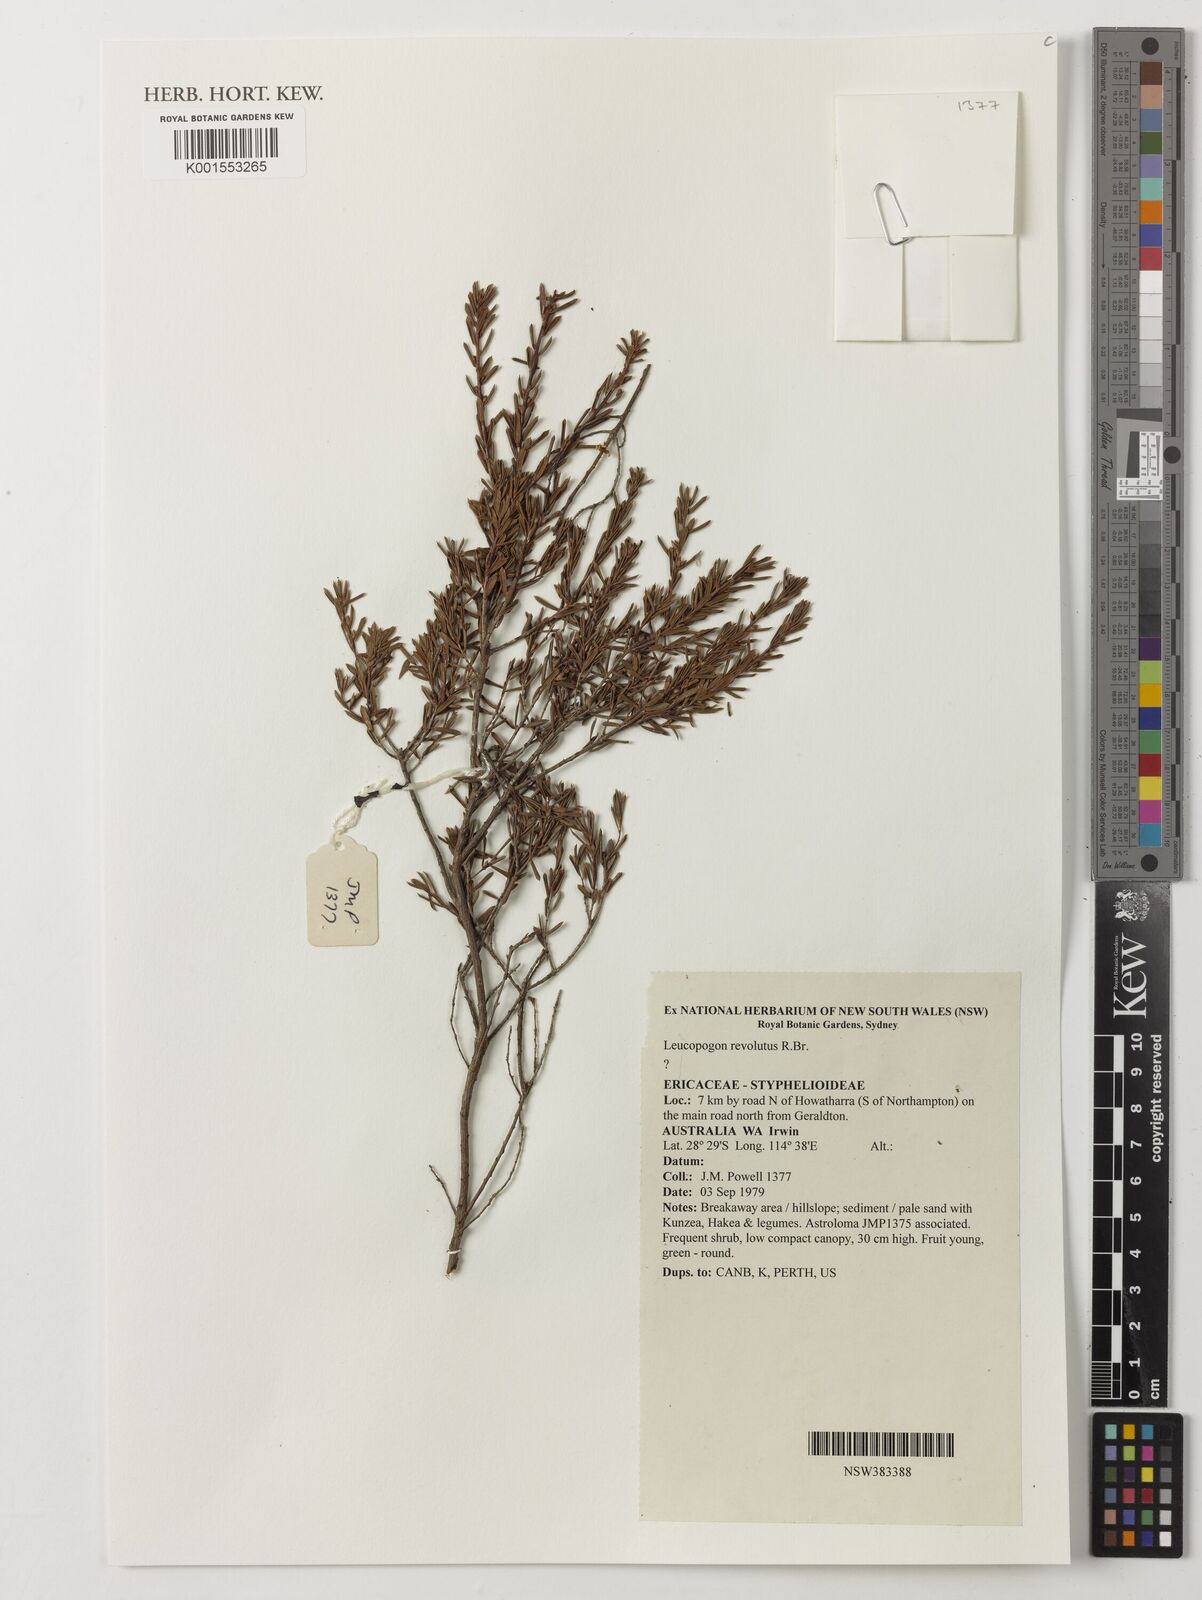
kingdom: Plantae
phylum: Tracheophyta
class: Magnoliopsida
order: Ericales
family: Ericaceae
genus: Leucopogon
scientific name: Leucopogon obovatus
